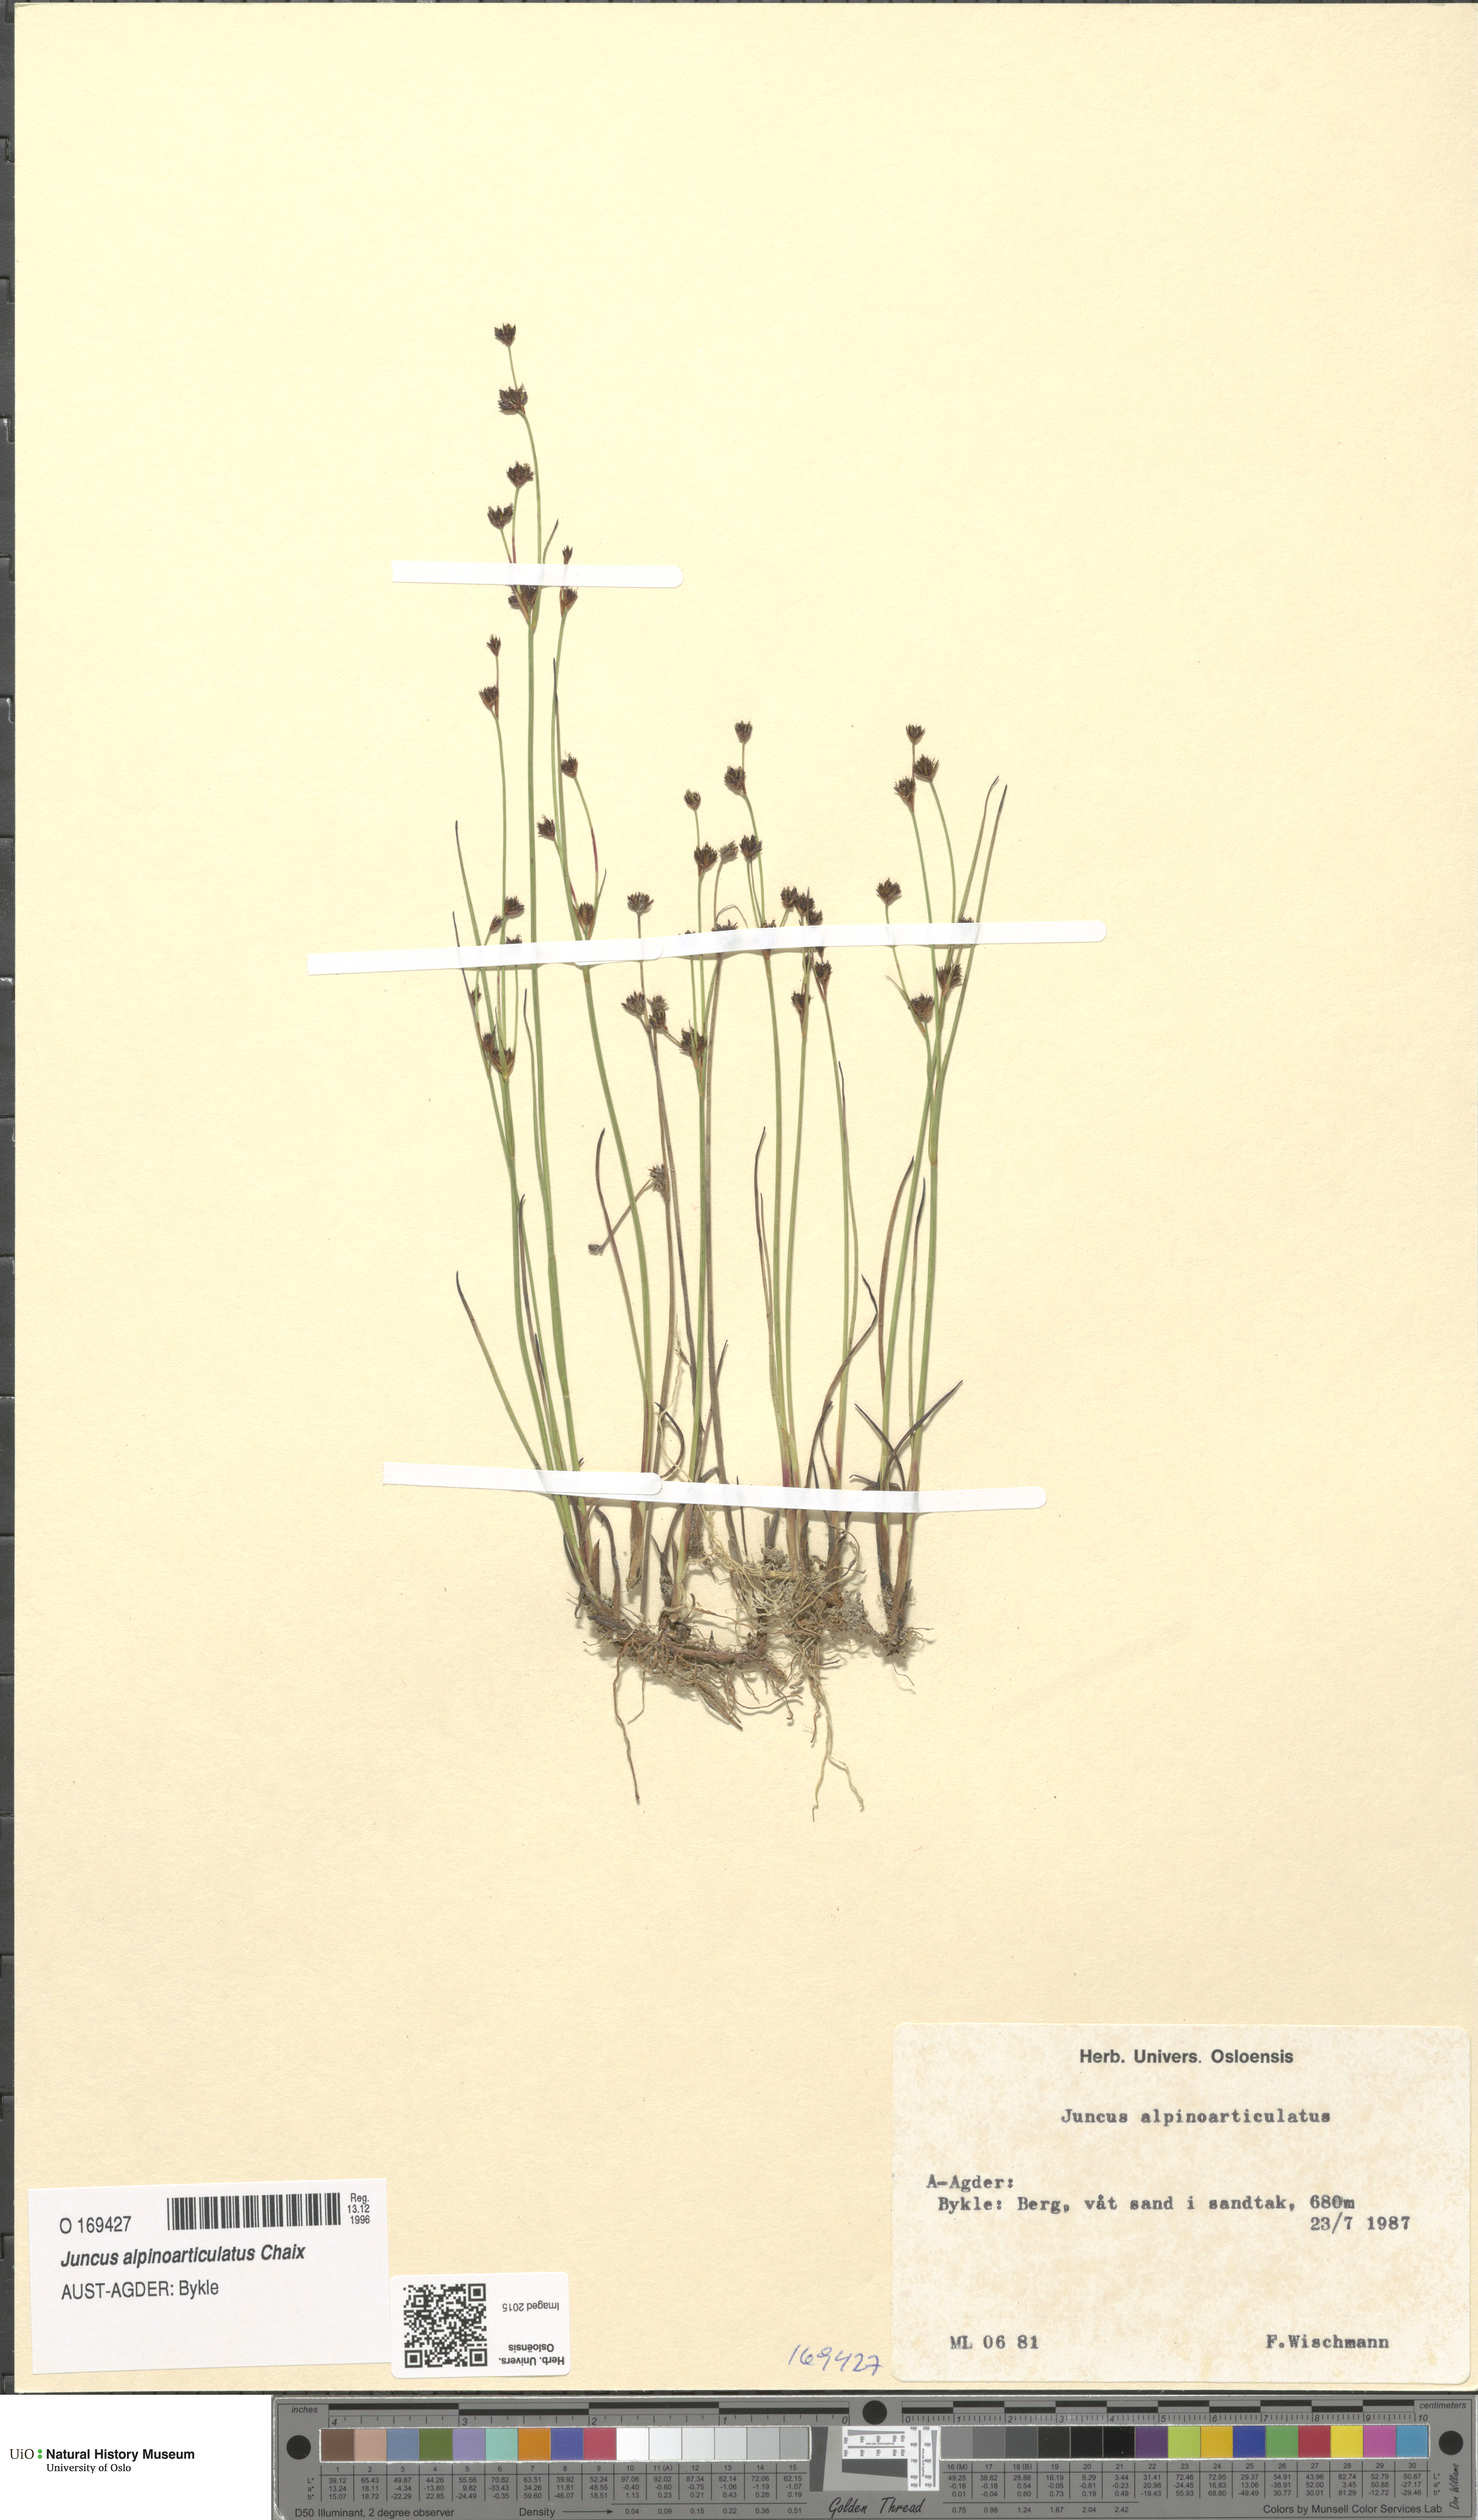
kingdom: Plantae
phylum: Tracheophyta
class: Liliopsida
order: Poales
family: Juncaceae
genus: Juncus
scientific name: Juncus alpinoarticulatus
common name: Alpine rush
